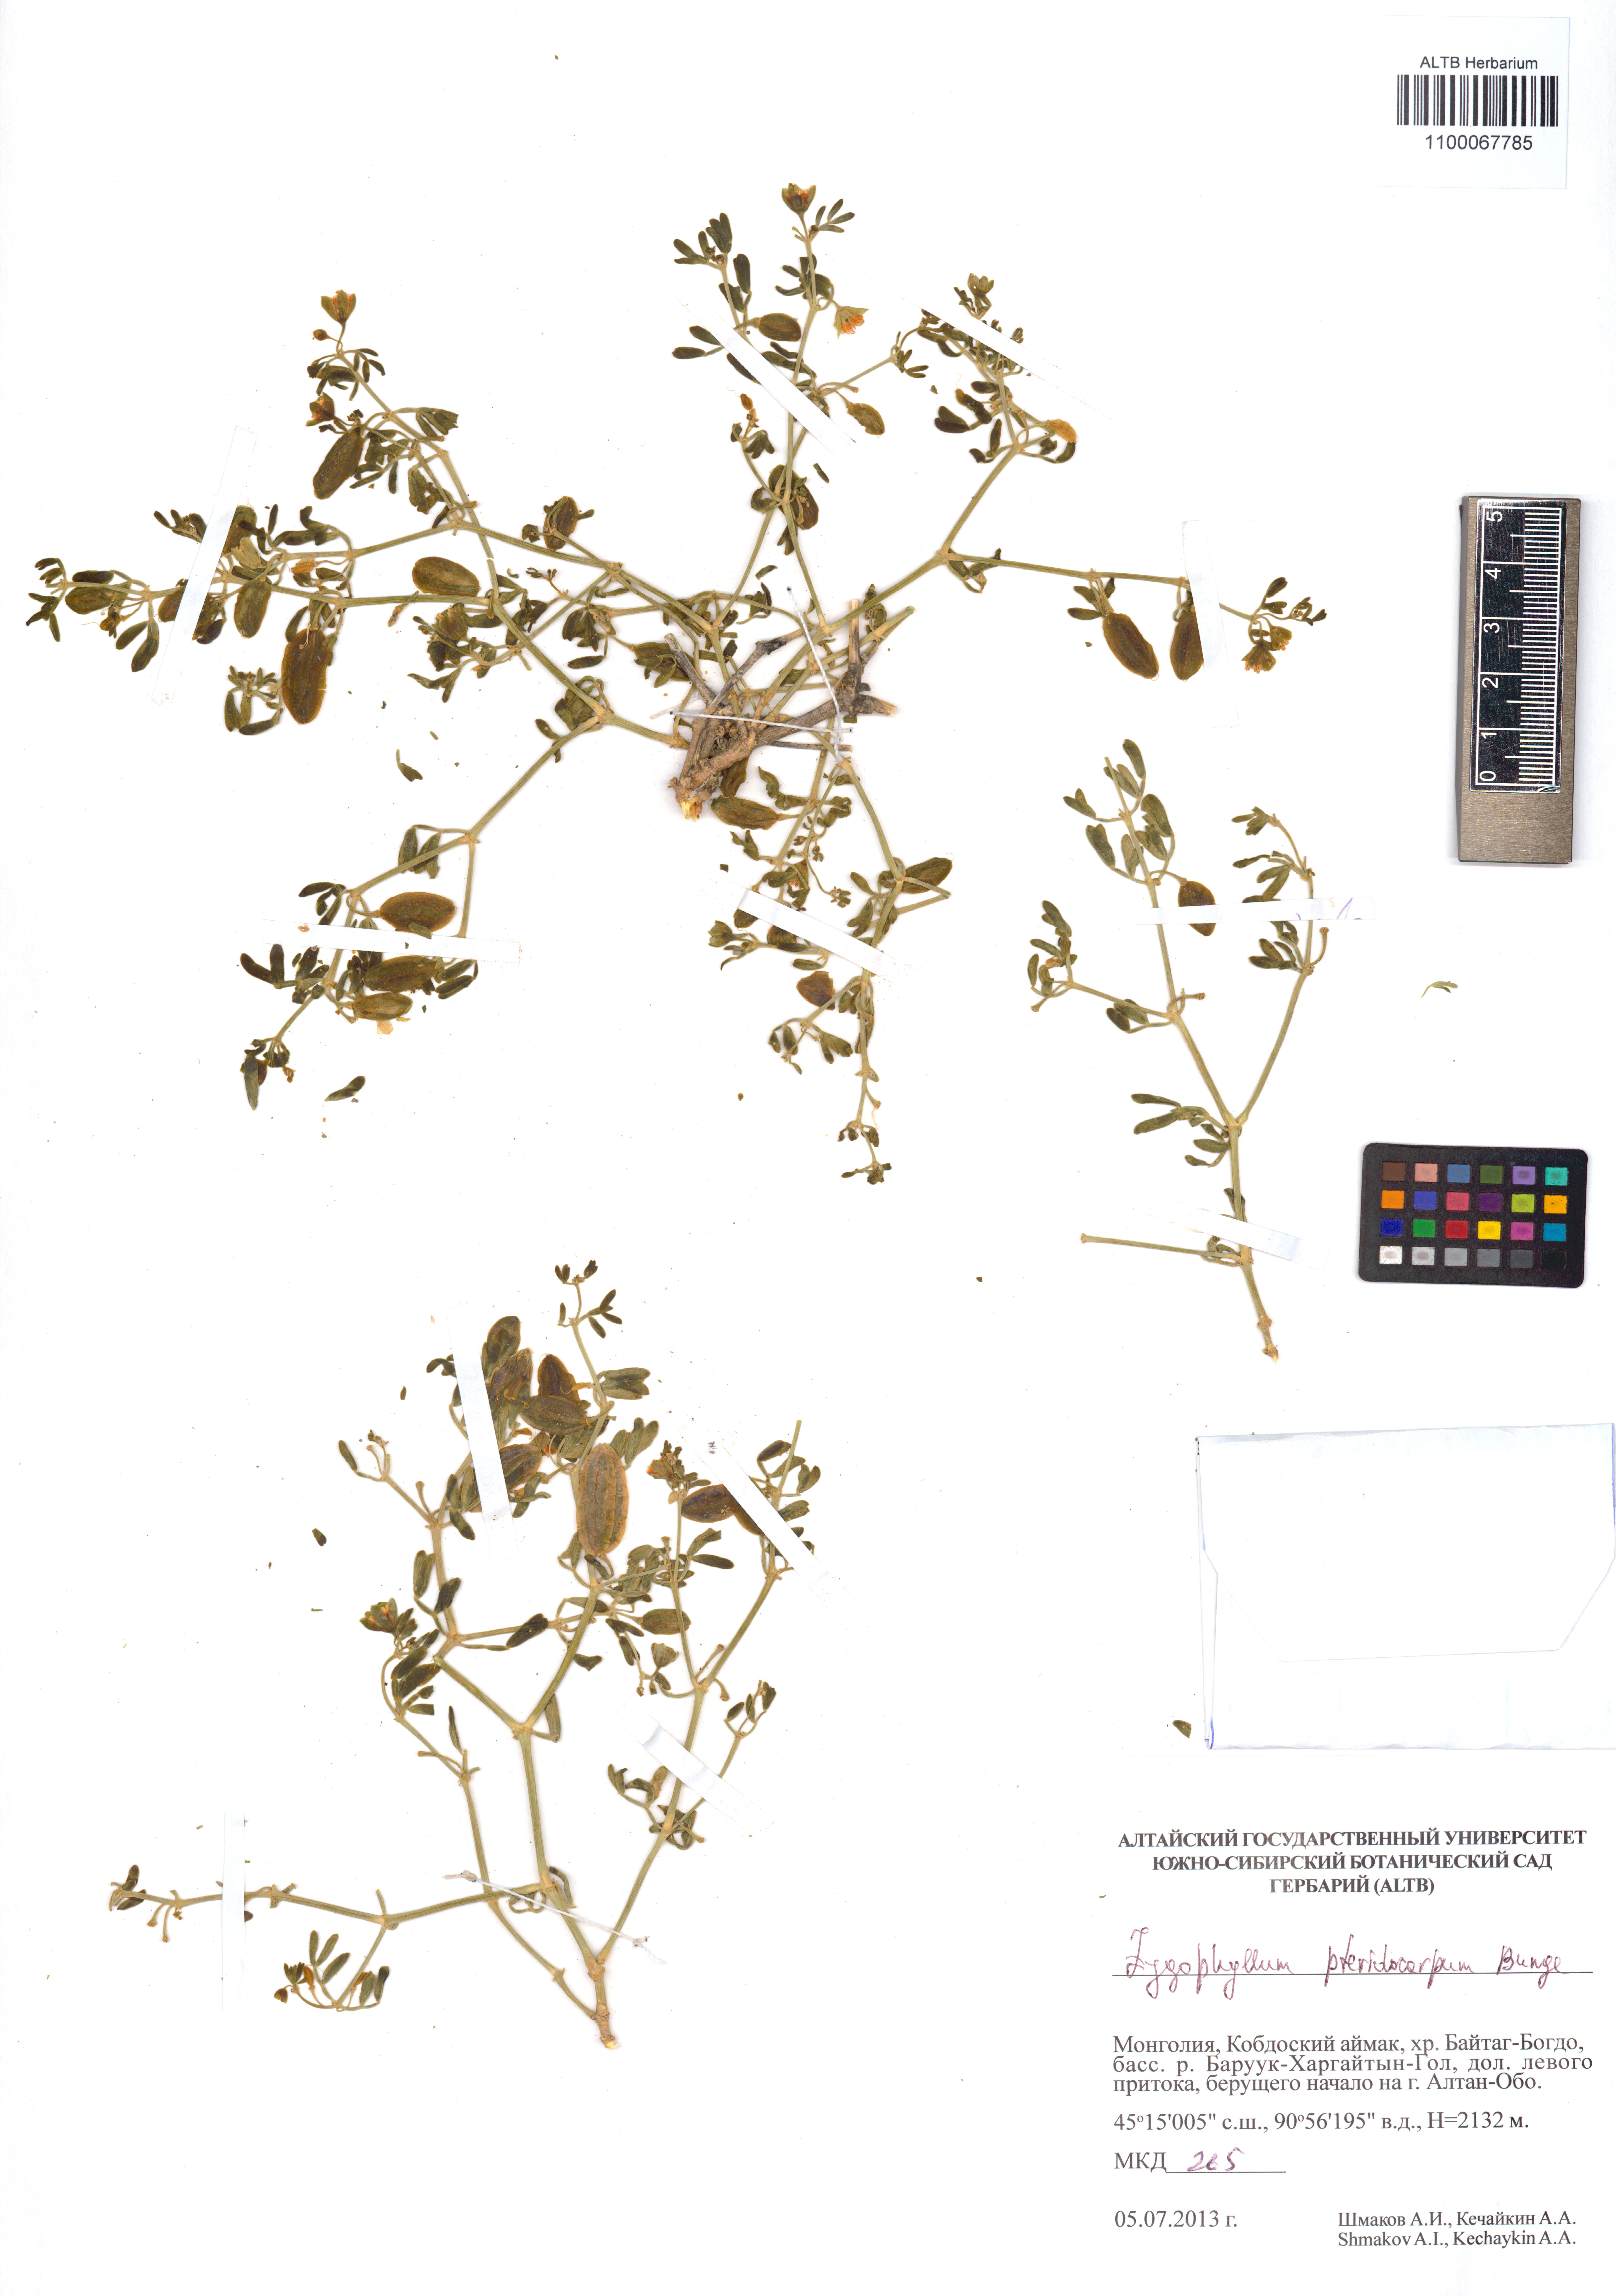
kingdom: Plantae
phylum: Tracheophyta
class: Magnoliopsida
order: Zygophyllales
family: Zygophyllaceae
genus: Zygophyllum
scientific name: Zygophyllum pterocarpum
